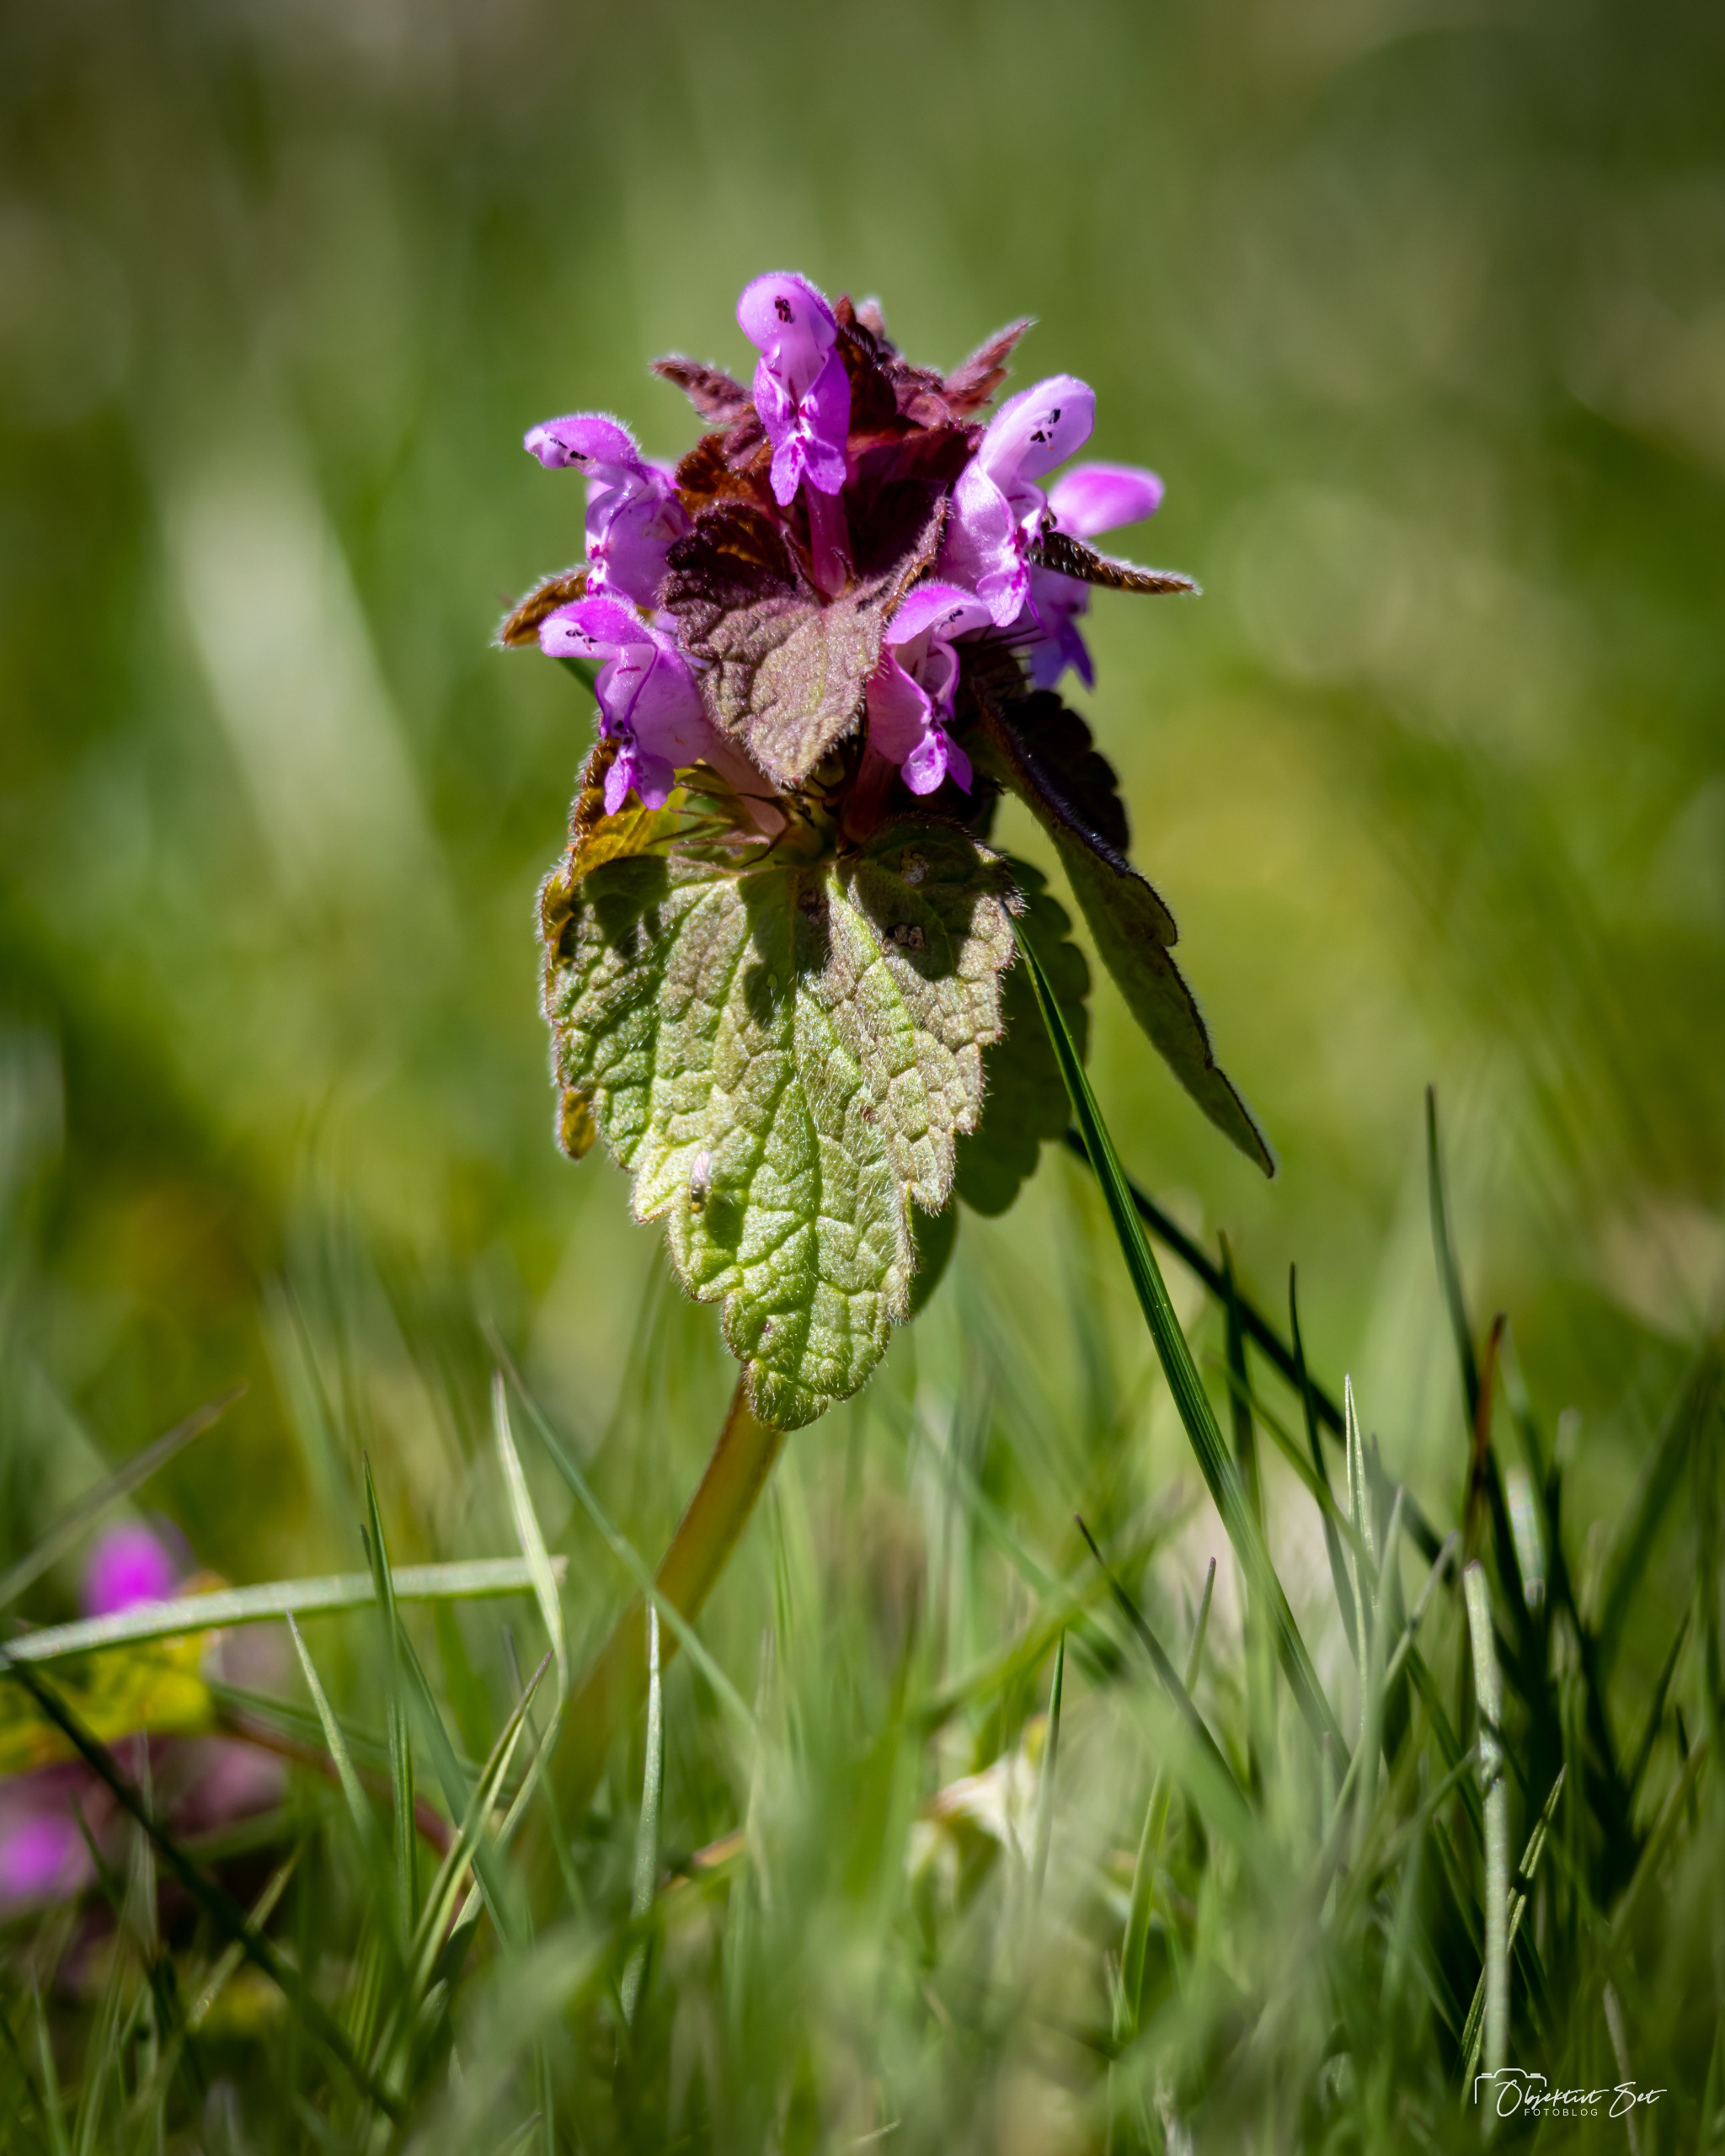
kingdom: Plantae
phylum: Tracheophyta
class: Magnoliopsida
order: Lamiales
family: Lamiaceae
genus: Lamium
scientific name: Lamium purpureum
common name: Rød tvetand
